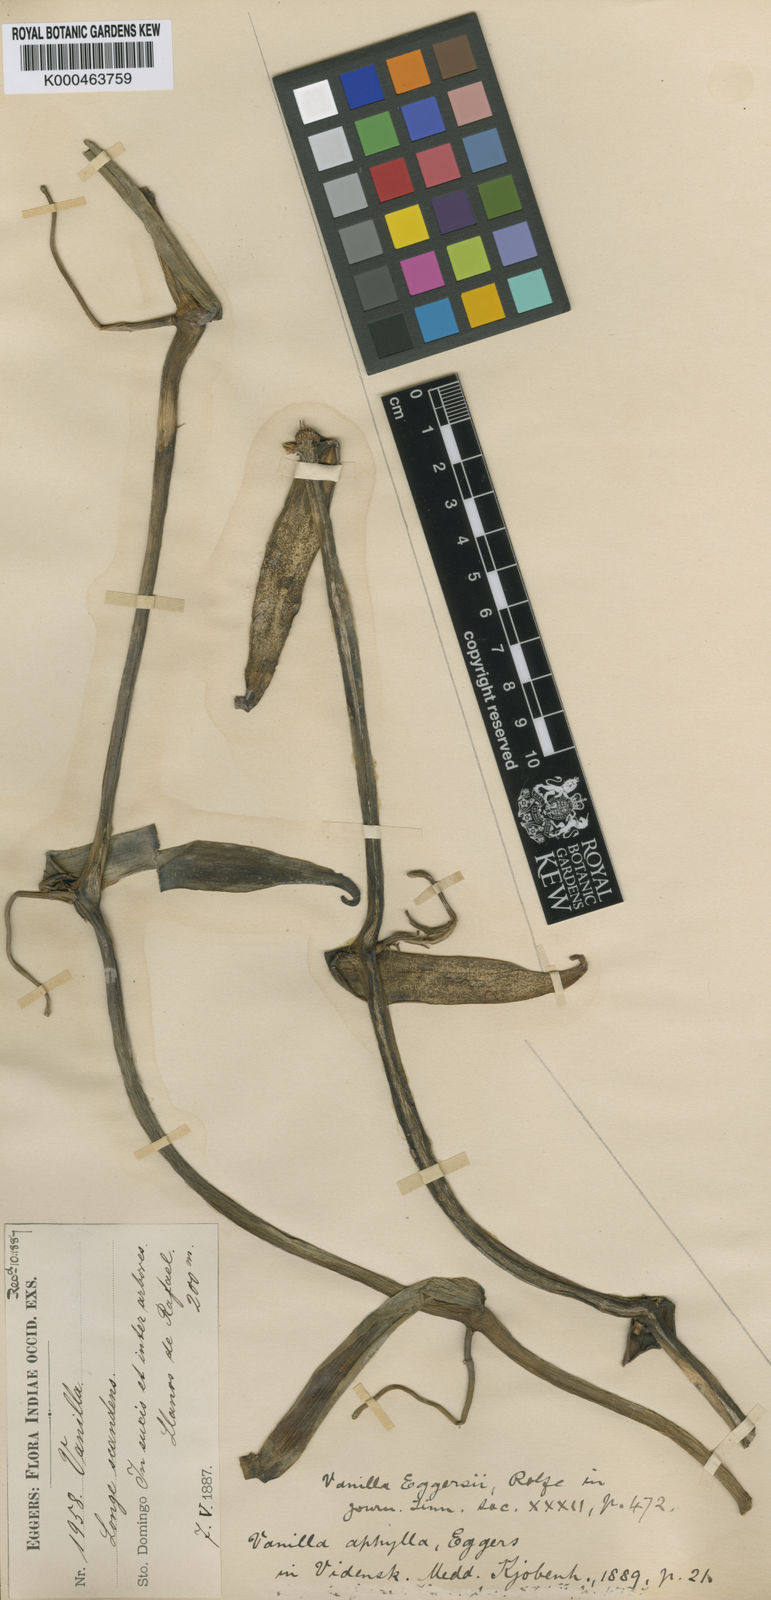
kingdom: Plantae
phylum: Tracheophyta
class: Liliopsida
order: Asparagales
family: Orchidaceae
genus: Vanilla
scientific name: Vanilla poitaei
